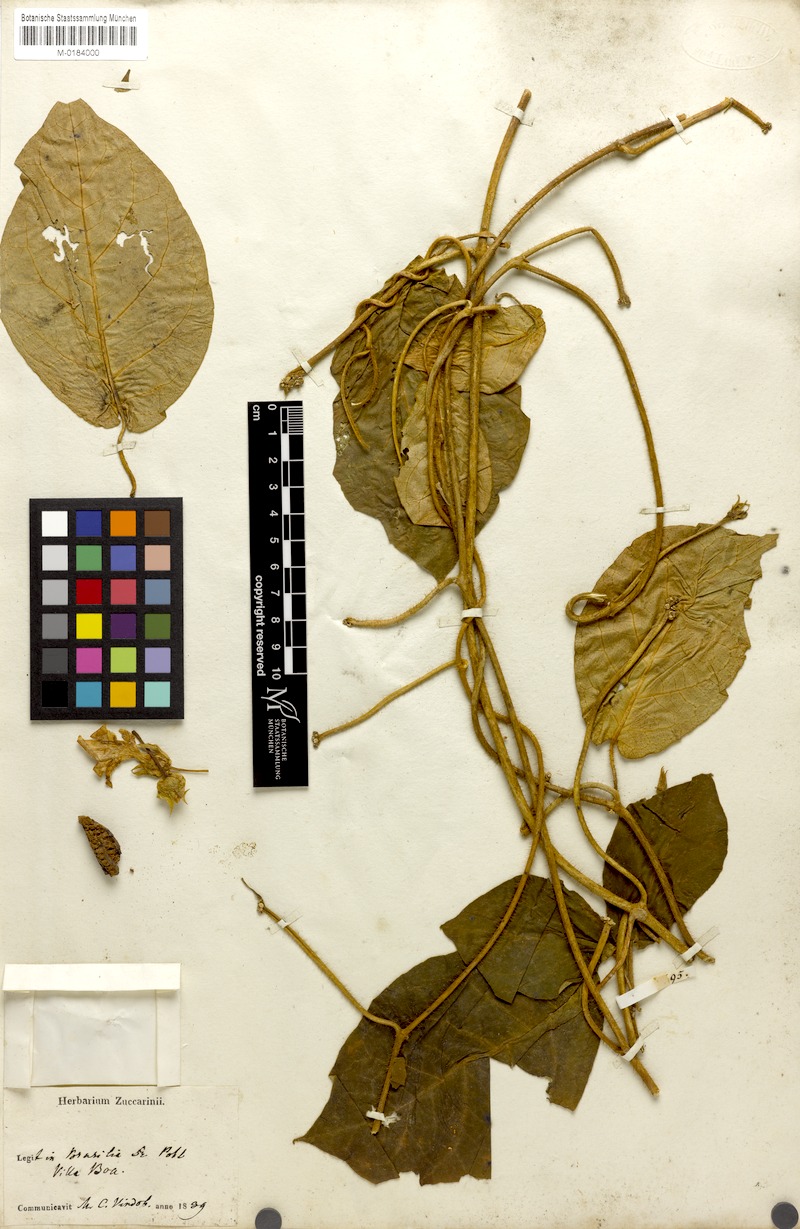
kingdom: Plantae
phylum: Tracheophyta
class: Magnoliopsida
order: Gentianales
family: Apocynaceae
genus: Macroscepis
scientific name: Macroscepis grandiflora
